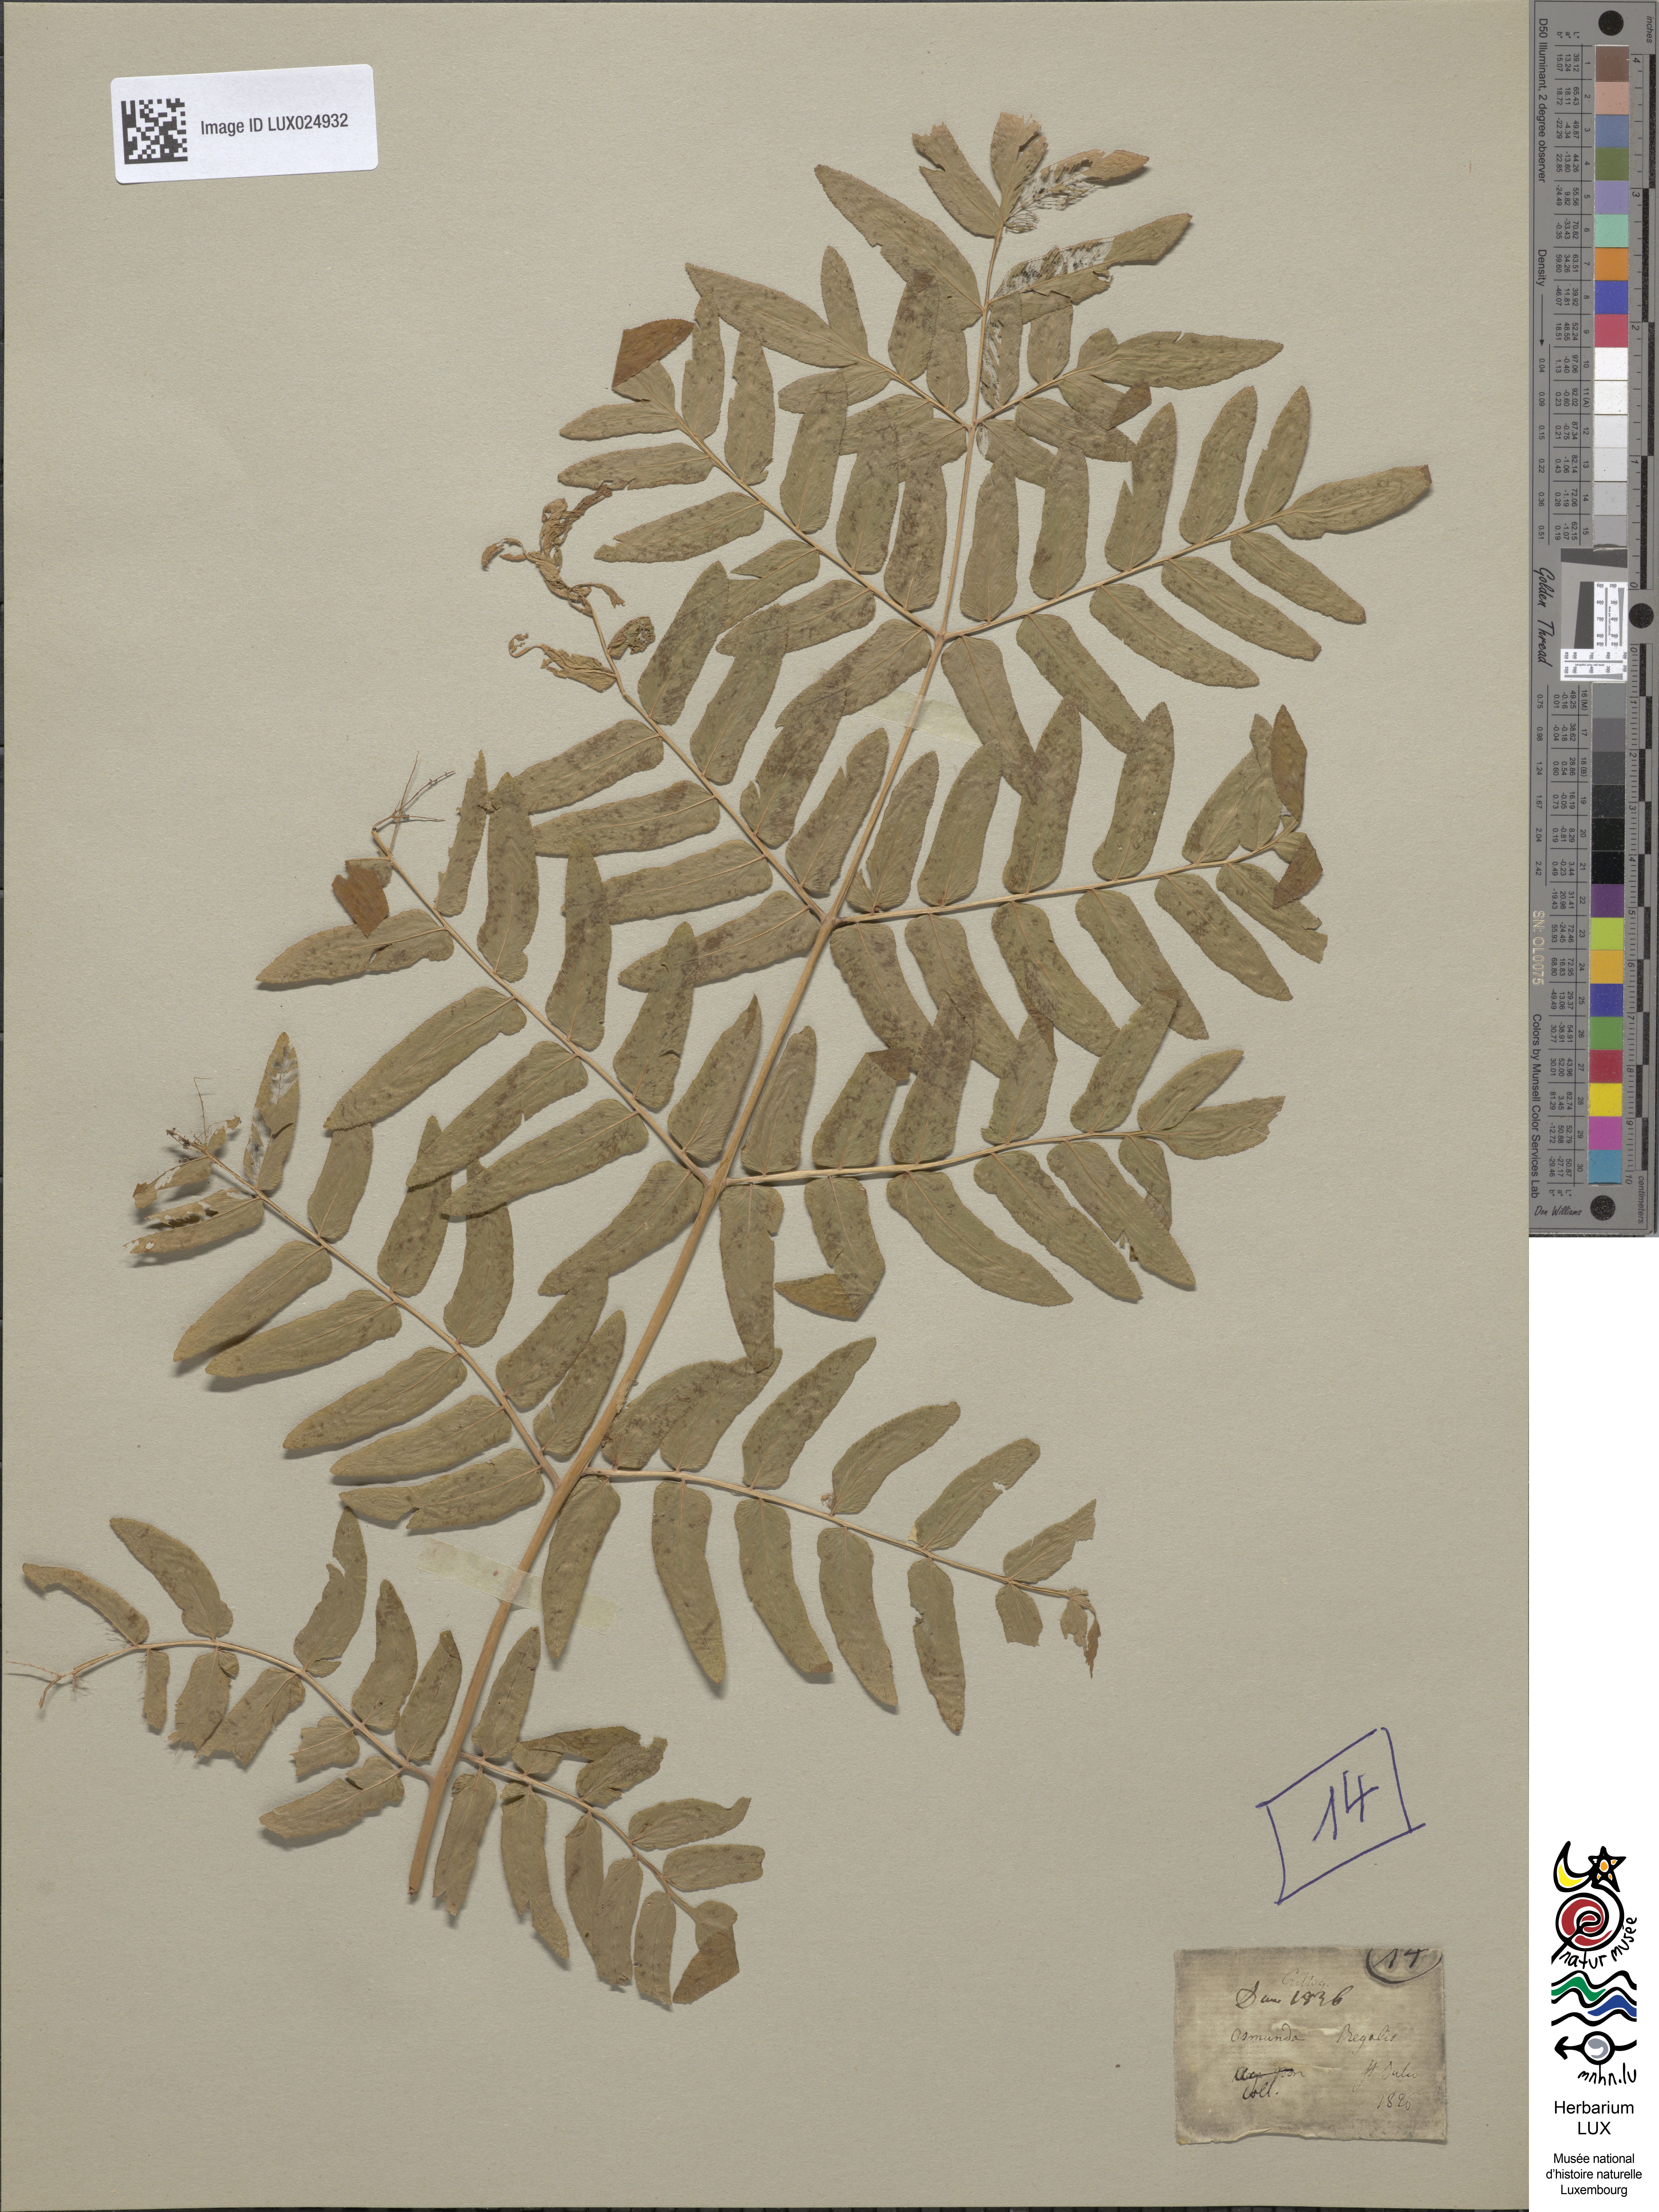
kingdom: Plantae
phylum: Tracheophyta
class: Polypodiopsida
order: Osmundales
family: Osmundaceae
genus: Osmunda
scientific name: Osmunda regalis
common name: Royal fern
